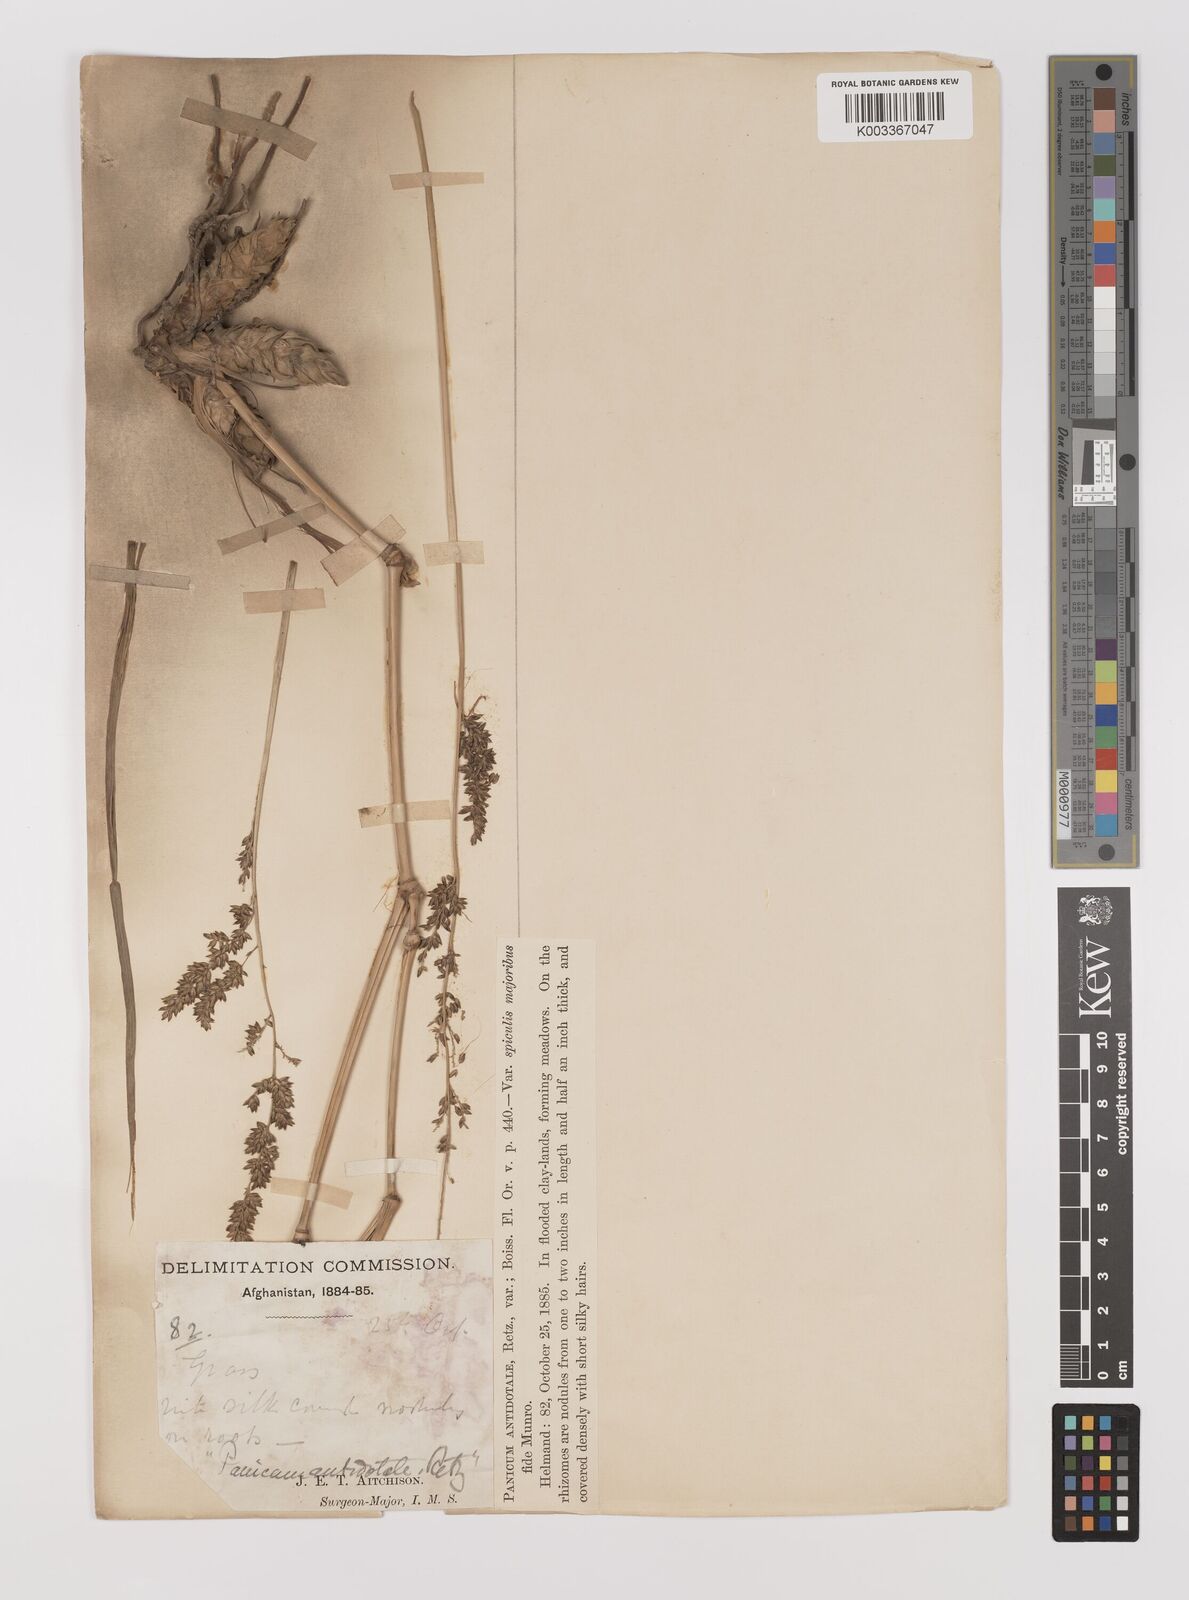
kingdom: Plantae
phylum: Tracheophyta
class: Liliopsida
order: Poales
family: Poaceae
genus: Panicum
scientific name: Panicum antidotale
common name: Blue panicum
